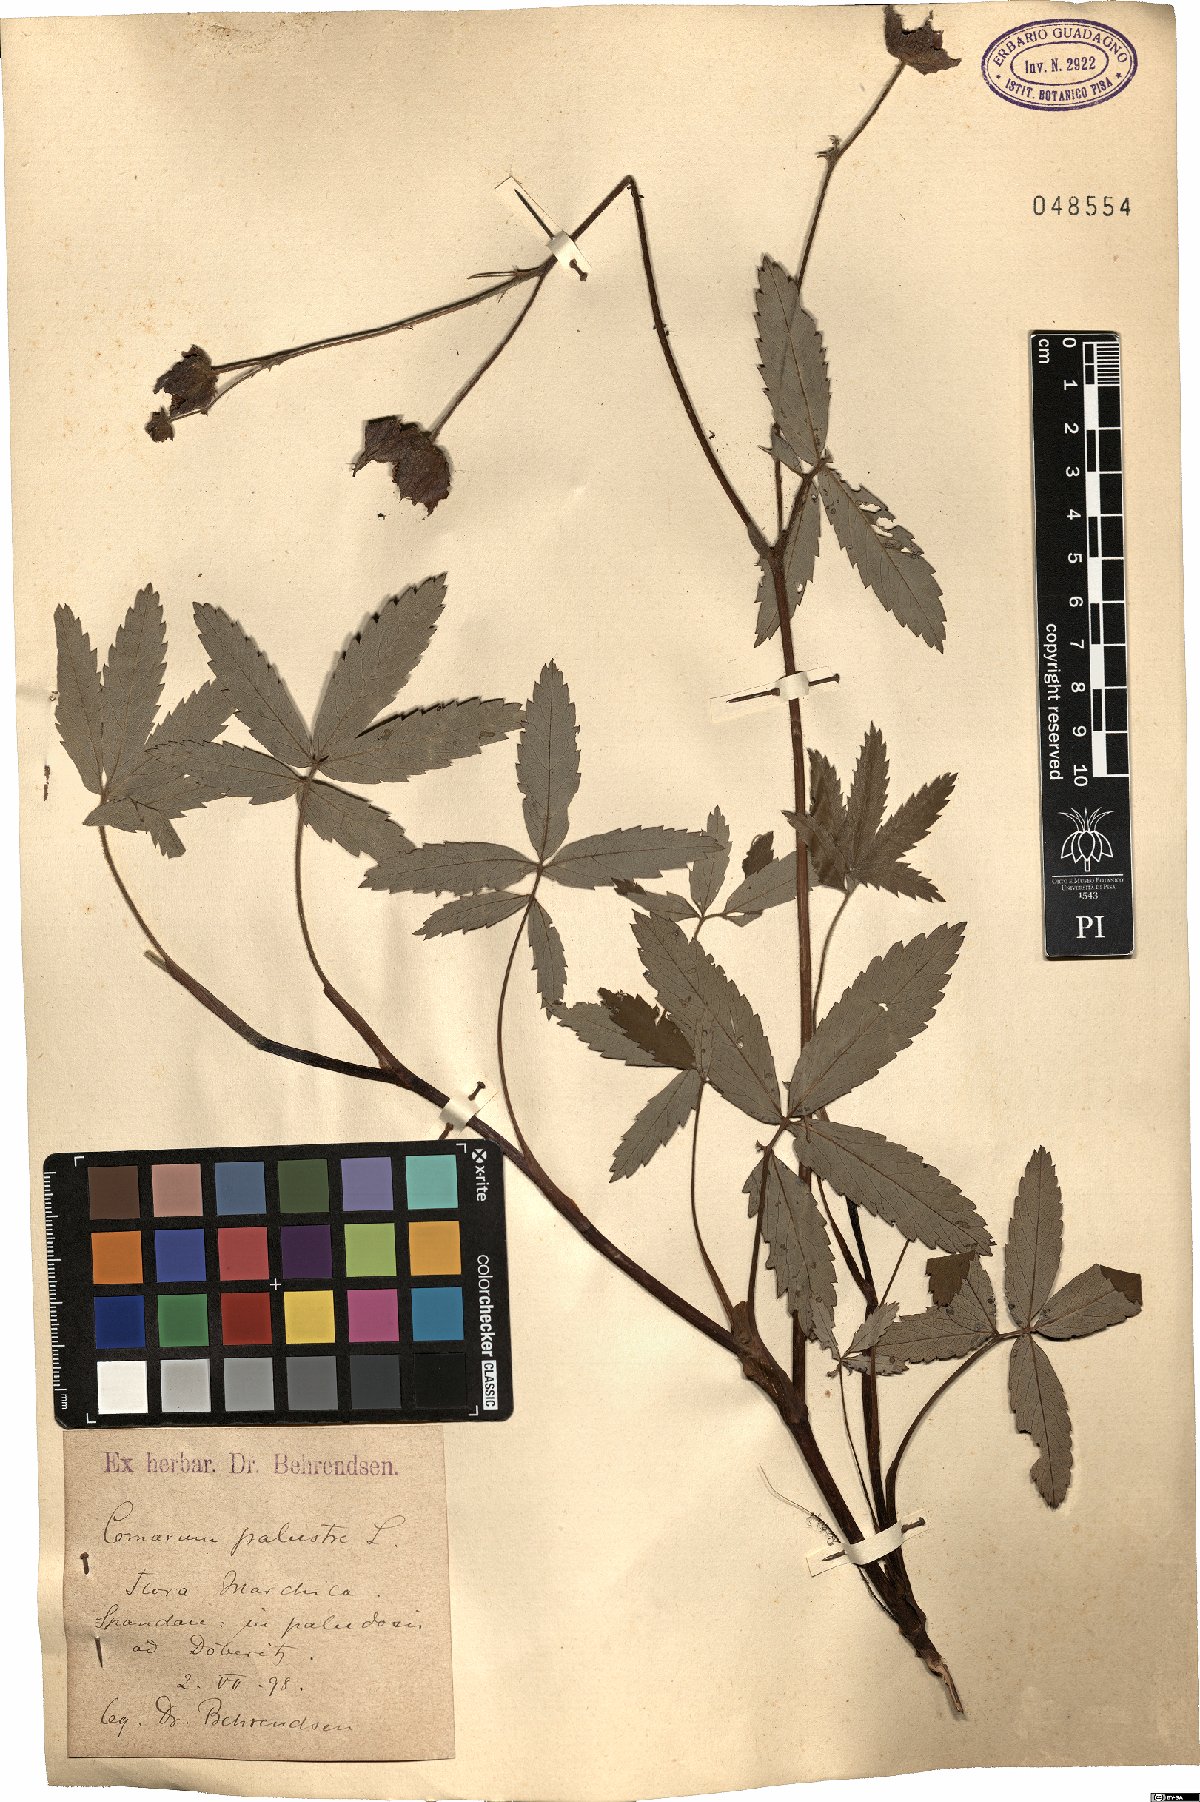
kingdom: Plantae
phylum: Tracheophyta
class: Magnoliopsida
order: Rosales
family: Rosaceae
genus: Comarum
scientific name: Comarum palustre
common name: Marsh cinquefoil
